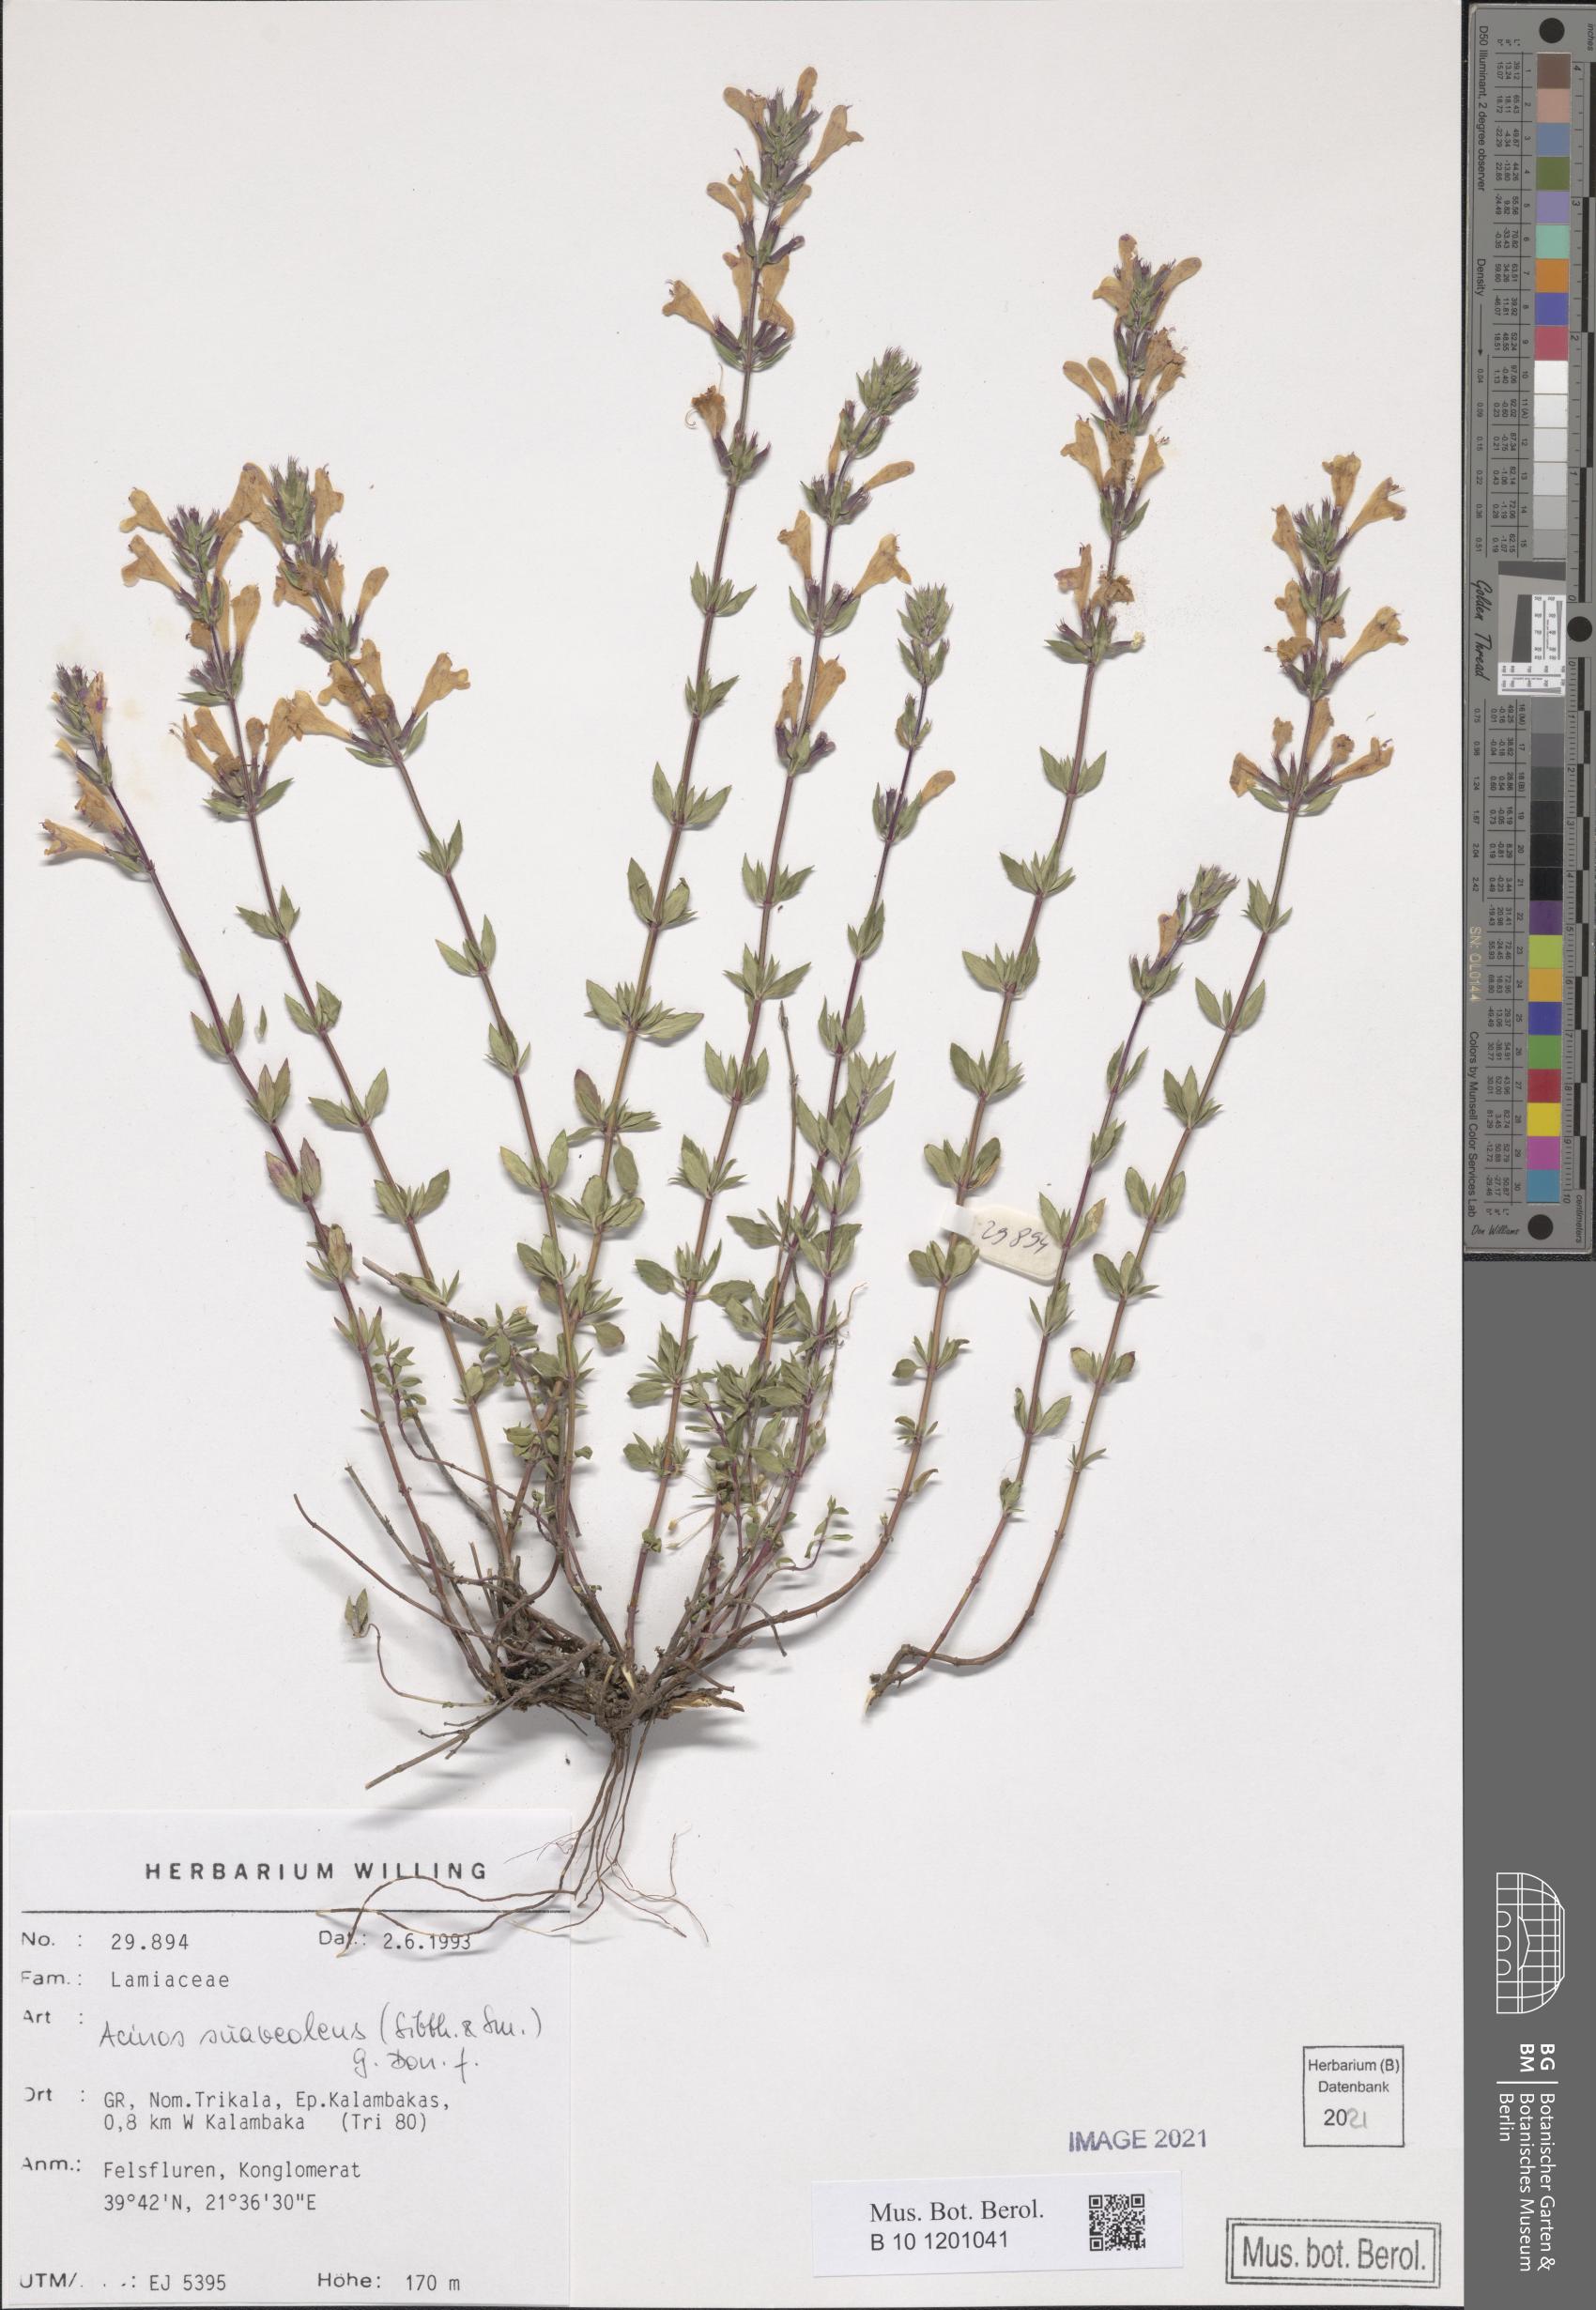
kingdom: Plantae
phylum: Tracheophyta
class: Magnoliopsida
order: Lamiales
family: Lamiaceae
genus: Clinopodium
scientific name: Clinopodium suaveolens
